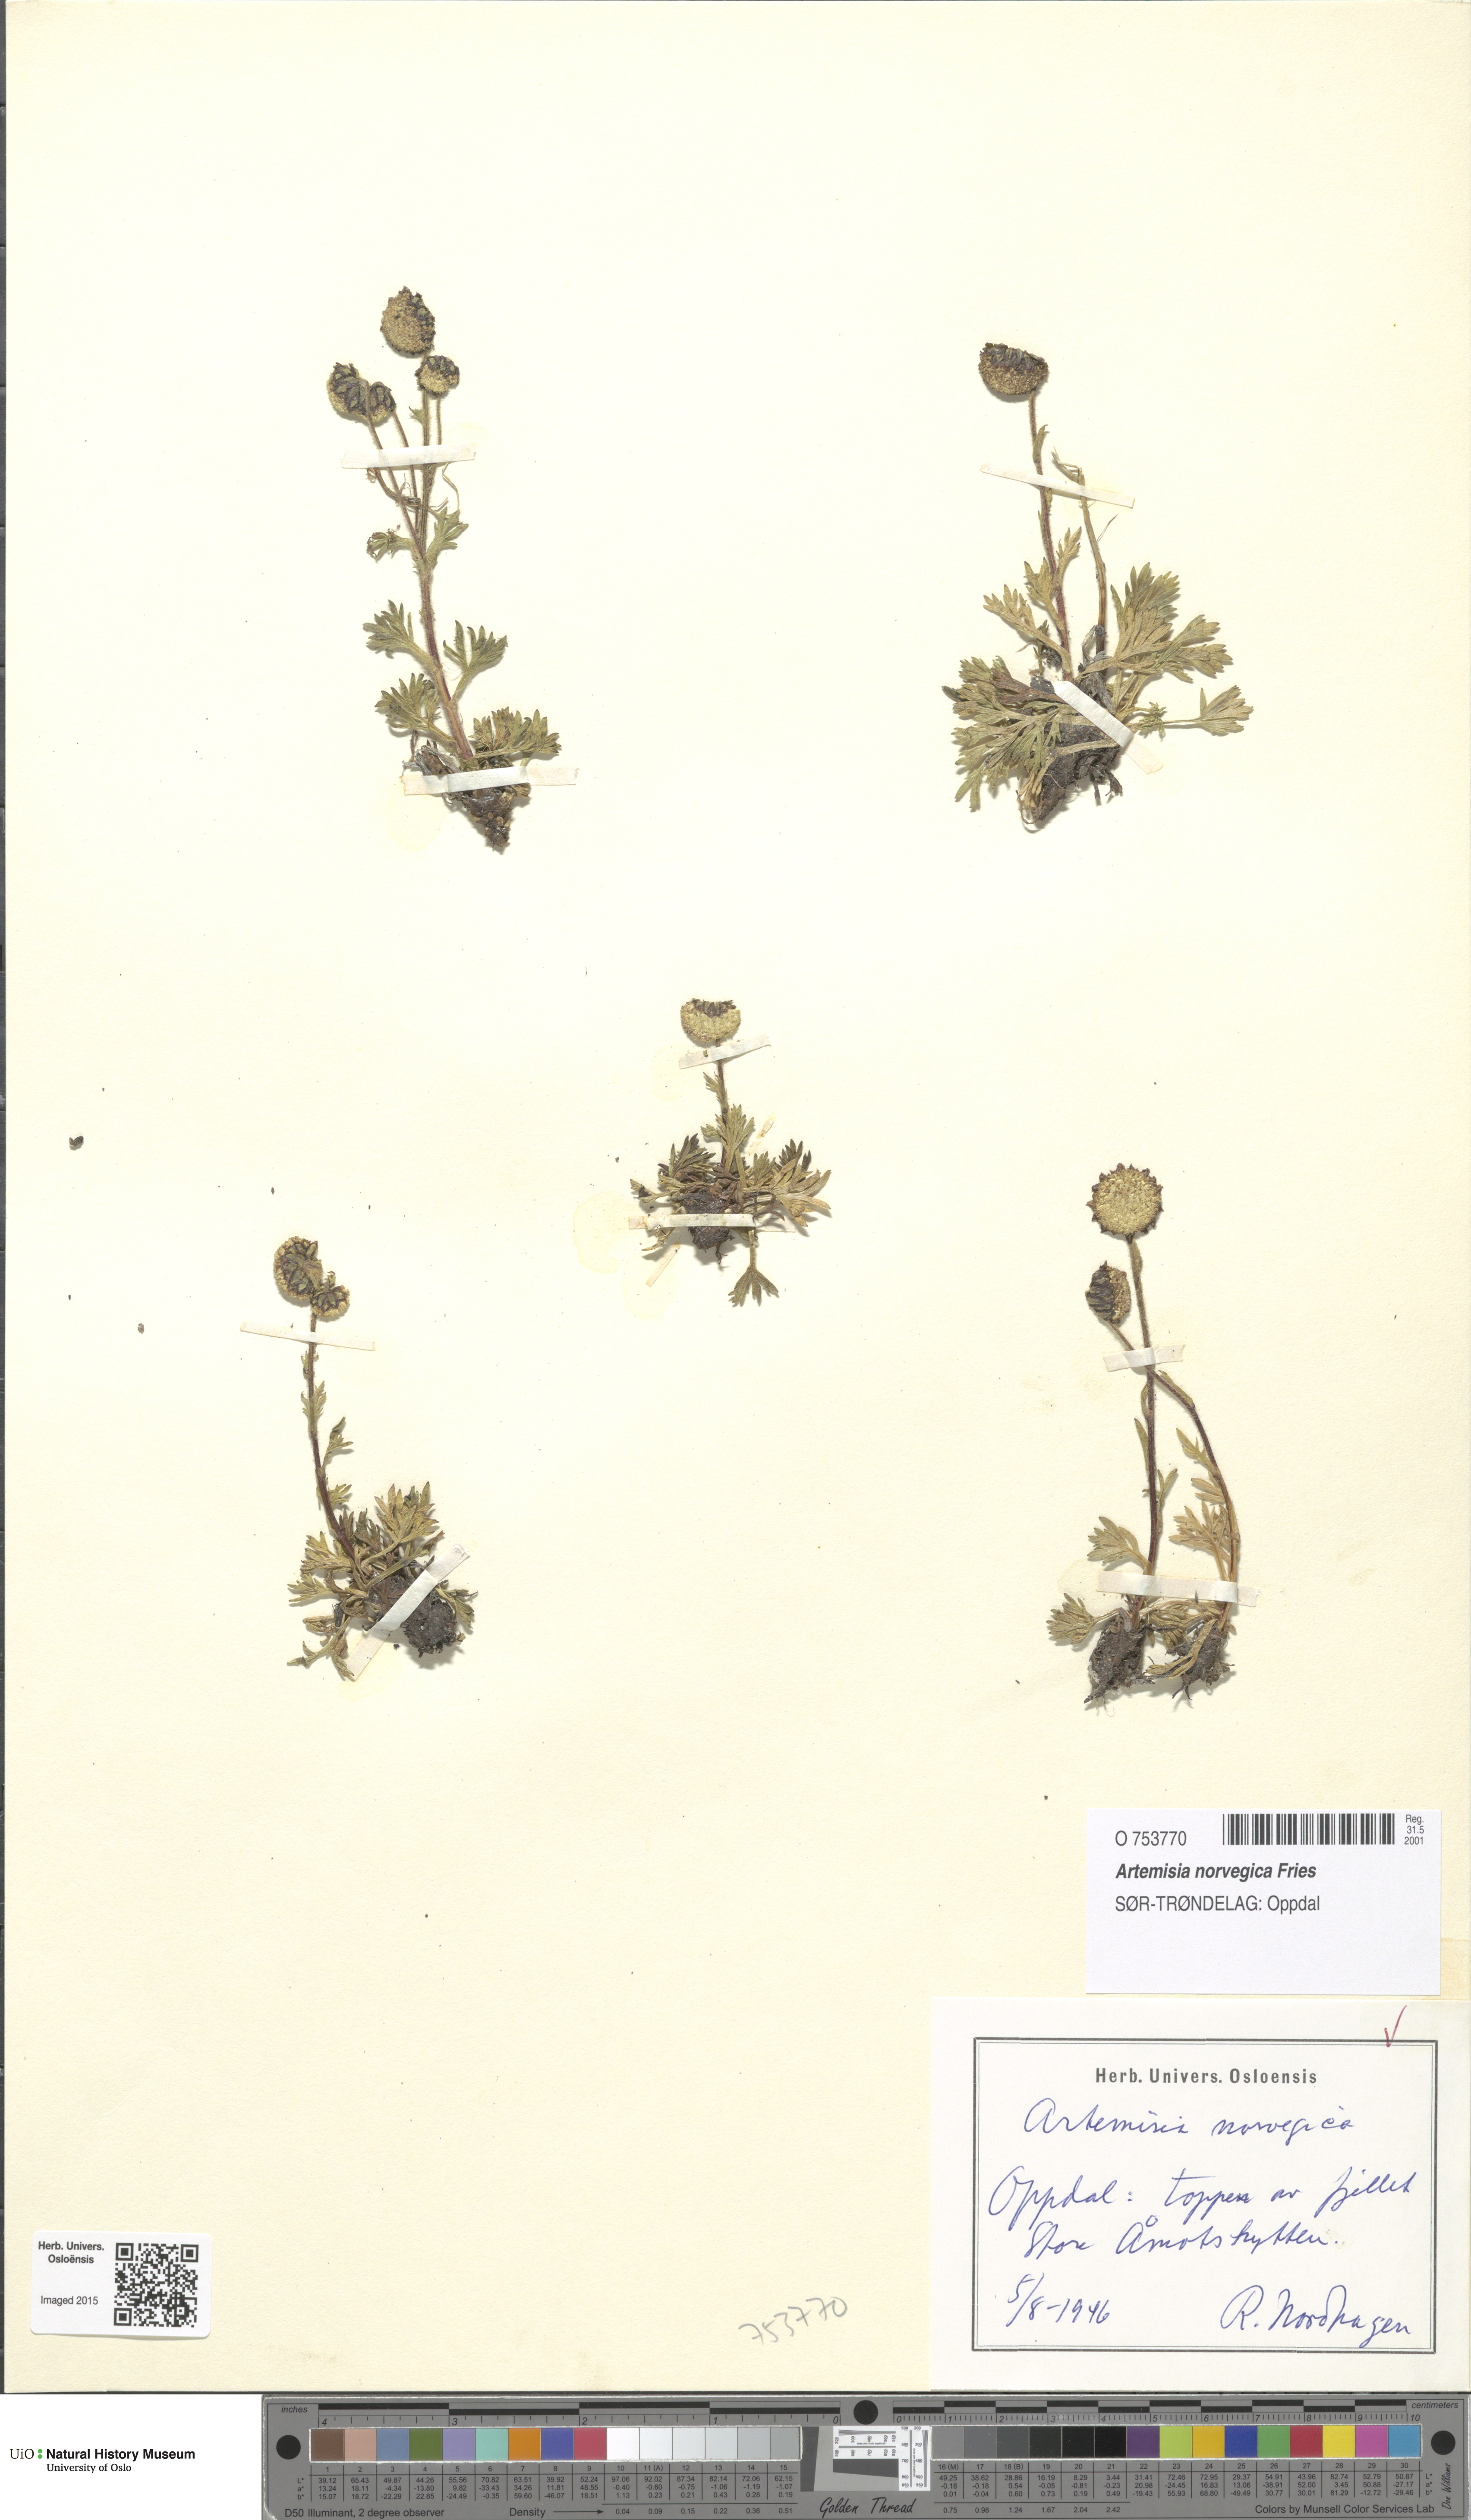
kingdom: Plantae
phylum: Tracheophyta
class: Magnoliopsida
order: Asterales
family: Asteraceae
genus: Artemisia
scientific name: Artemisia norvegica
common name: Norwegian mugwort
